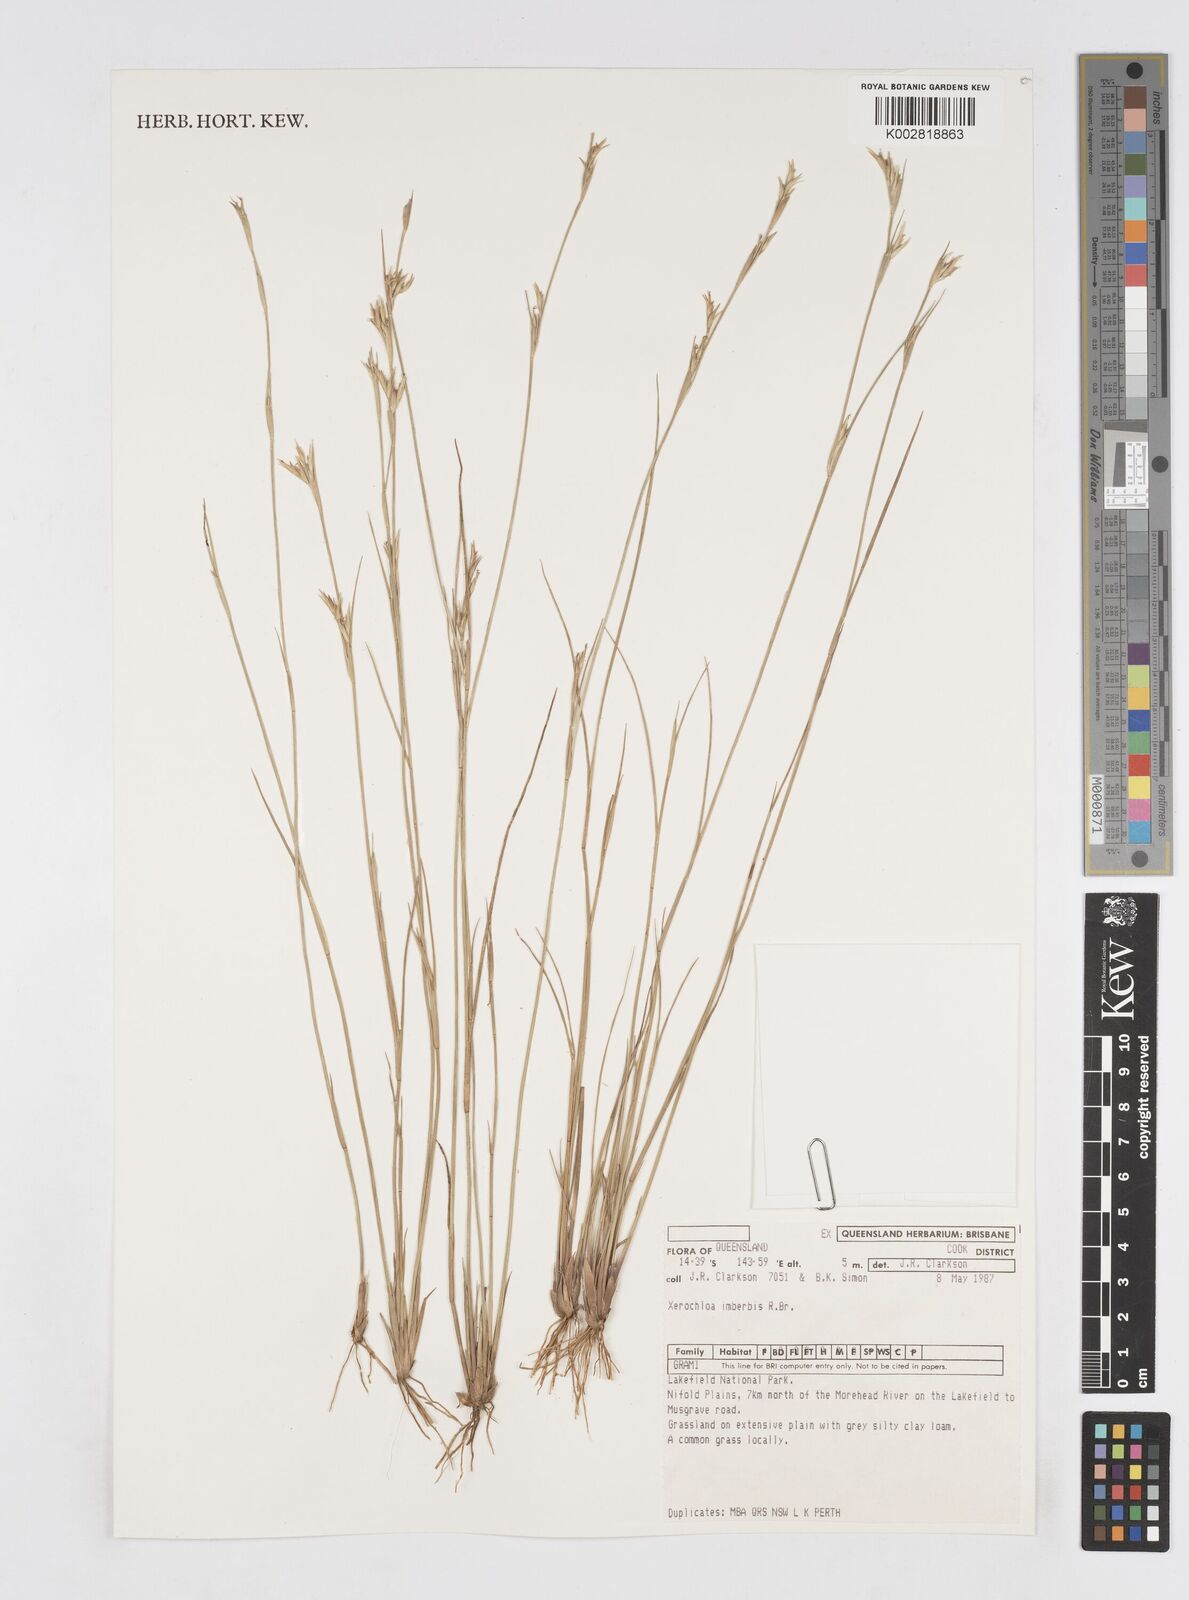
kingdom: Plantae
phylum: Tracheophyta
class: Liliopsida
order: Poales
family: Poaceae
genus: Xerochloa
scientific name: Xerochloa imberbis
